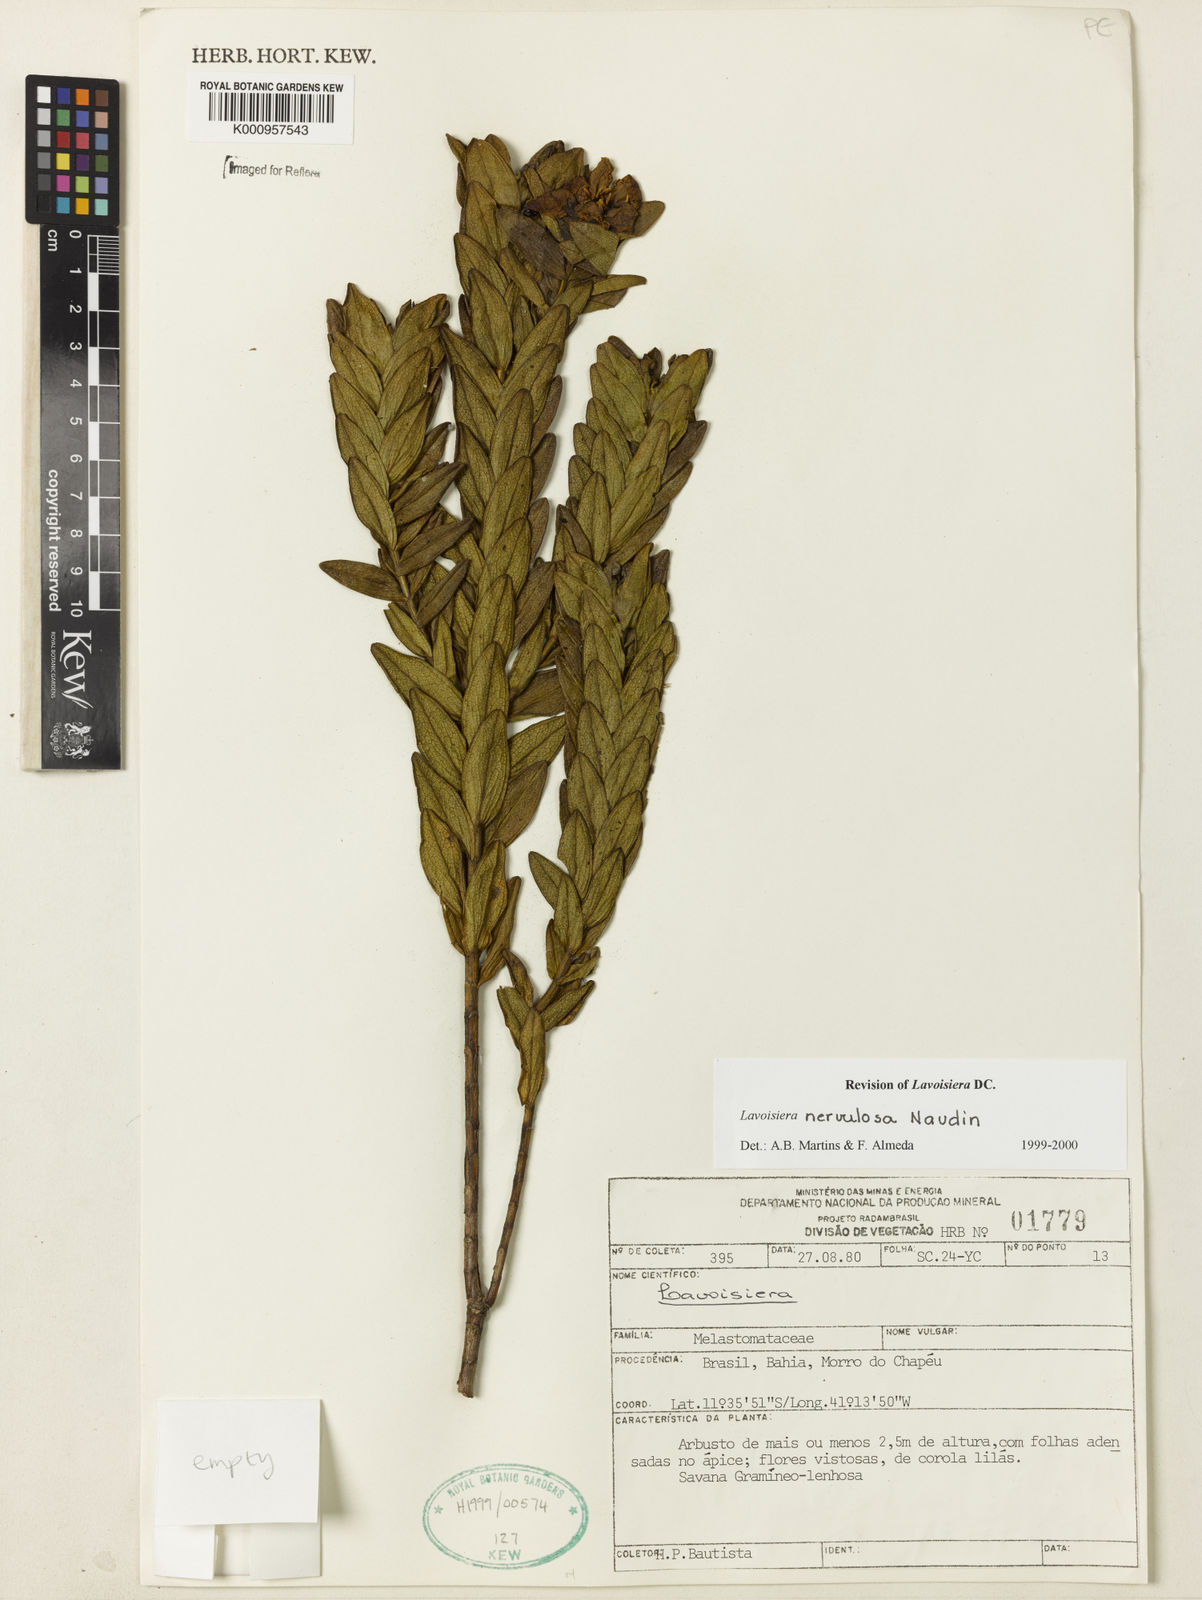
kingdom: Plantae
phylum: Tracheophyta
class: Magnoliopsida
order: Myrtales
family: Melastomataceae
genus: Microlicia
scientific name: Microlicia nervulosa
